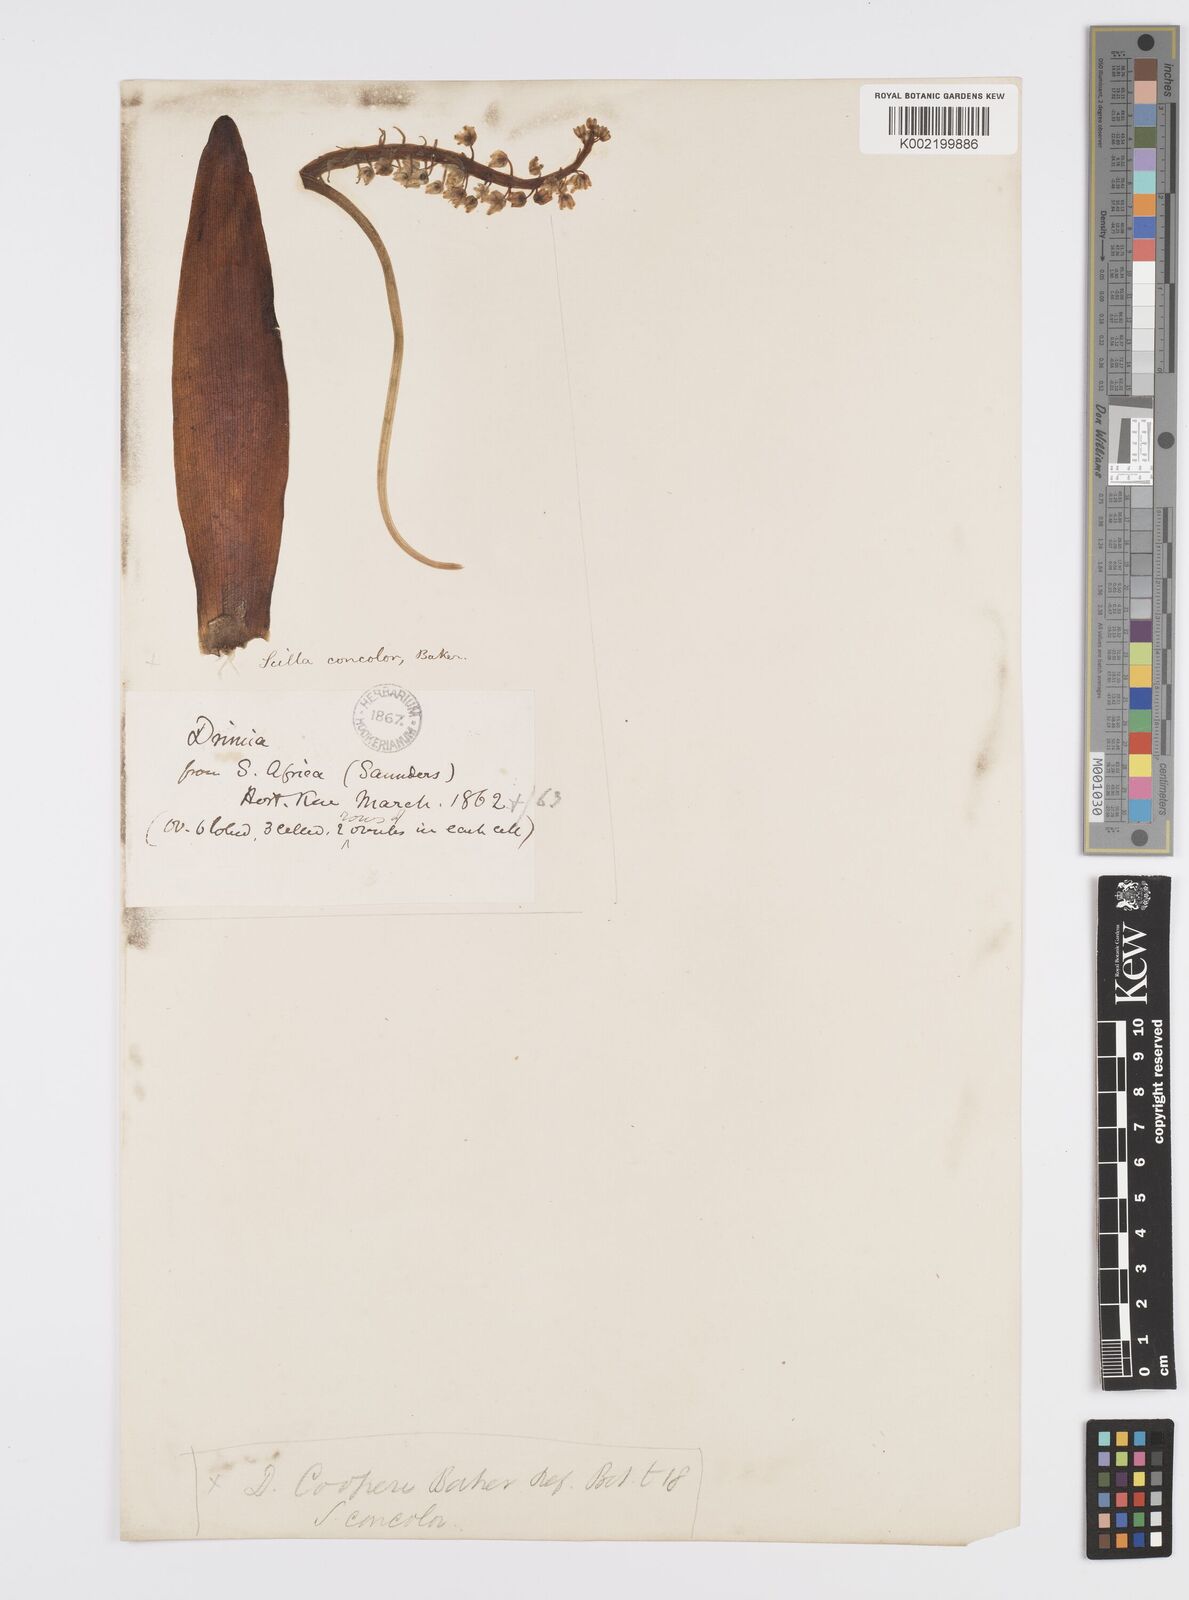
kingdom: Plantae
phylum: Tracheophyta
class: Liliopsida
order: Asparagales
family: Asparagaceae
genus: Ledebouria
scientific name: Ledebouria nitida
